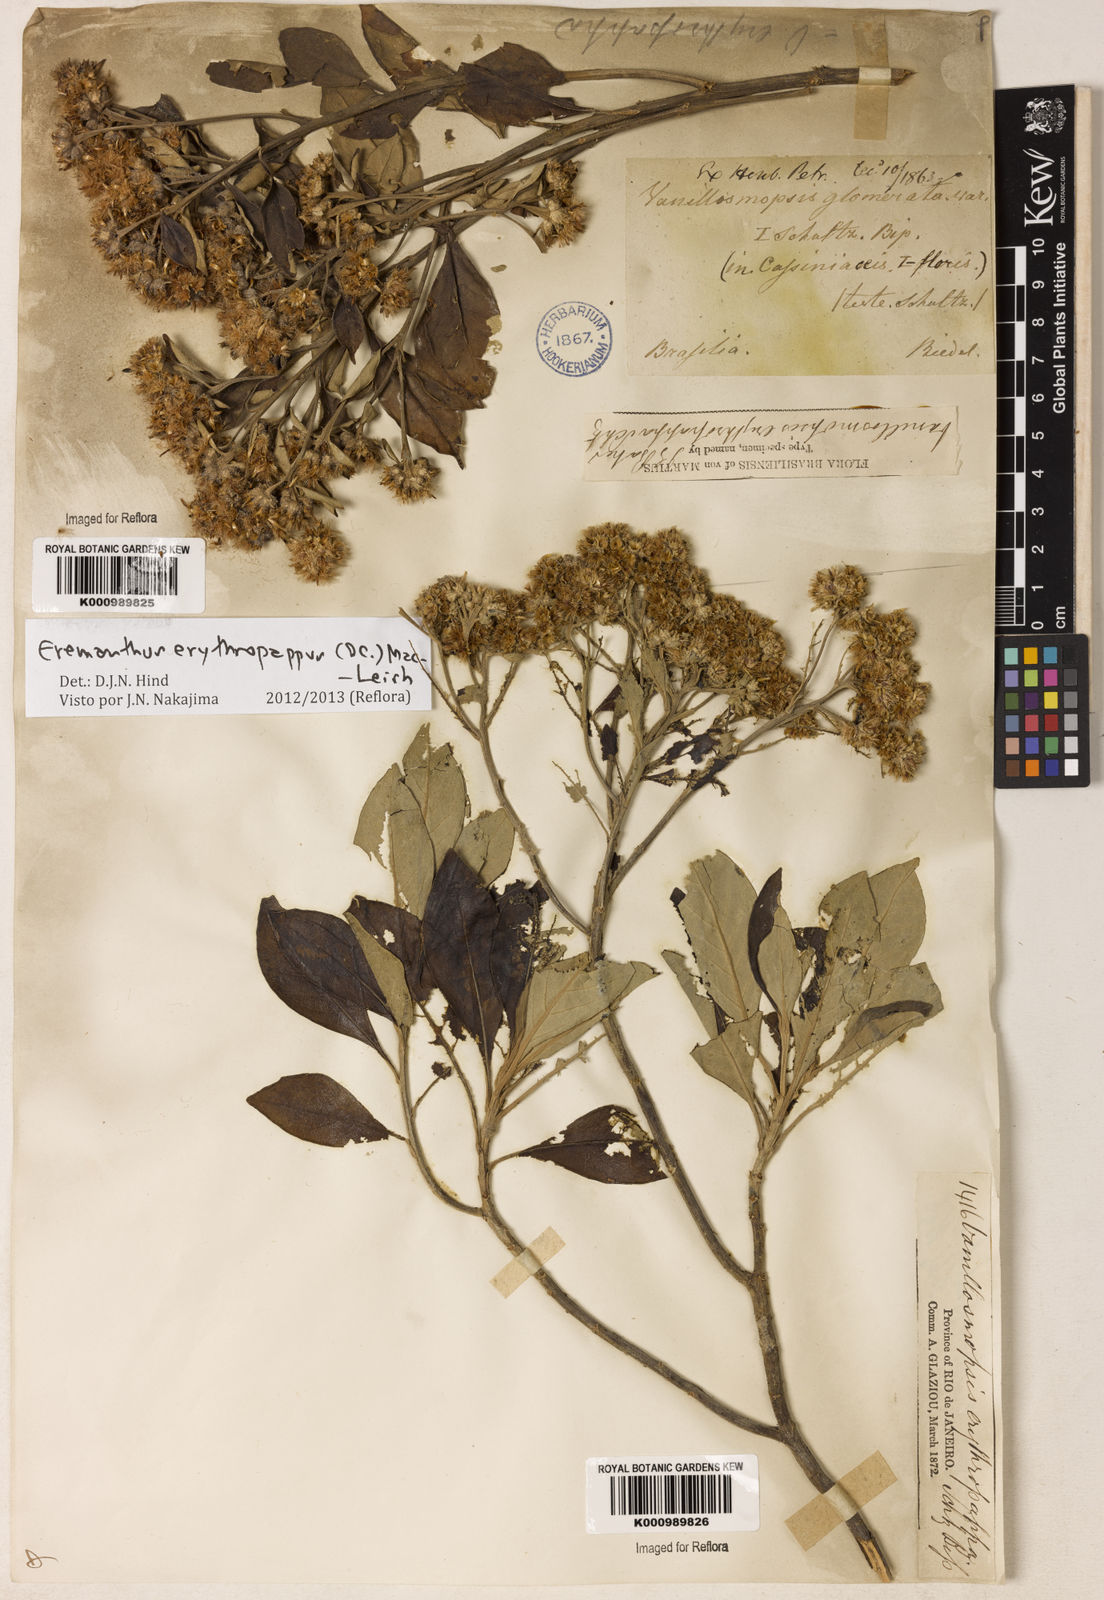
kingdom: Plantae
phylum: Tracheophyta
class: Magnoliopsida
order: Asterales
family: Asteraceae
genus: Eremanthus
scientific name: Eremanthus erythropappus
